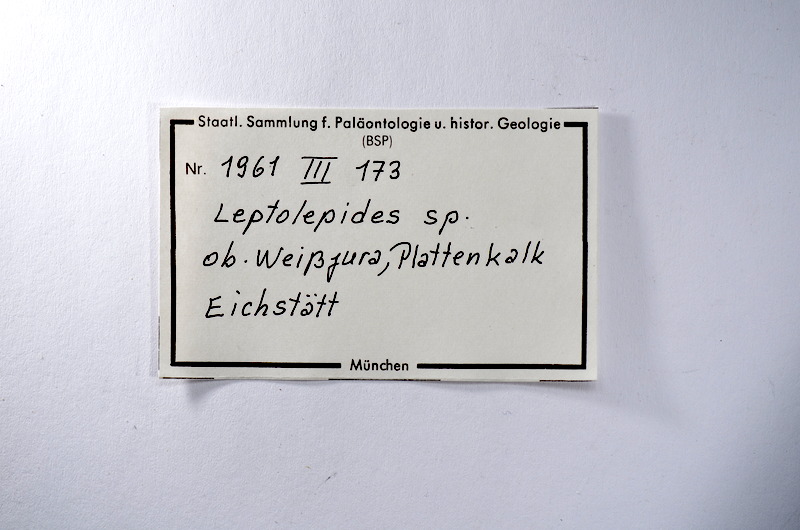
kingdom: Animalia
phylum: Chordata
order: Salmoniformes
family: Orthogonikleithridae
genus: Leptolepides
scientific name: Leptolepides
